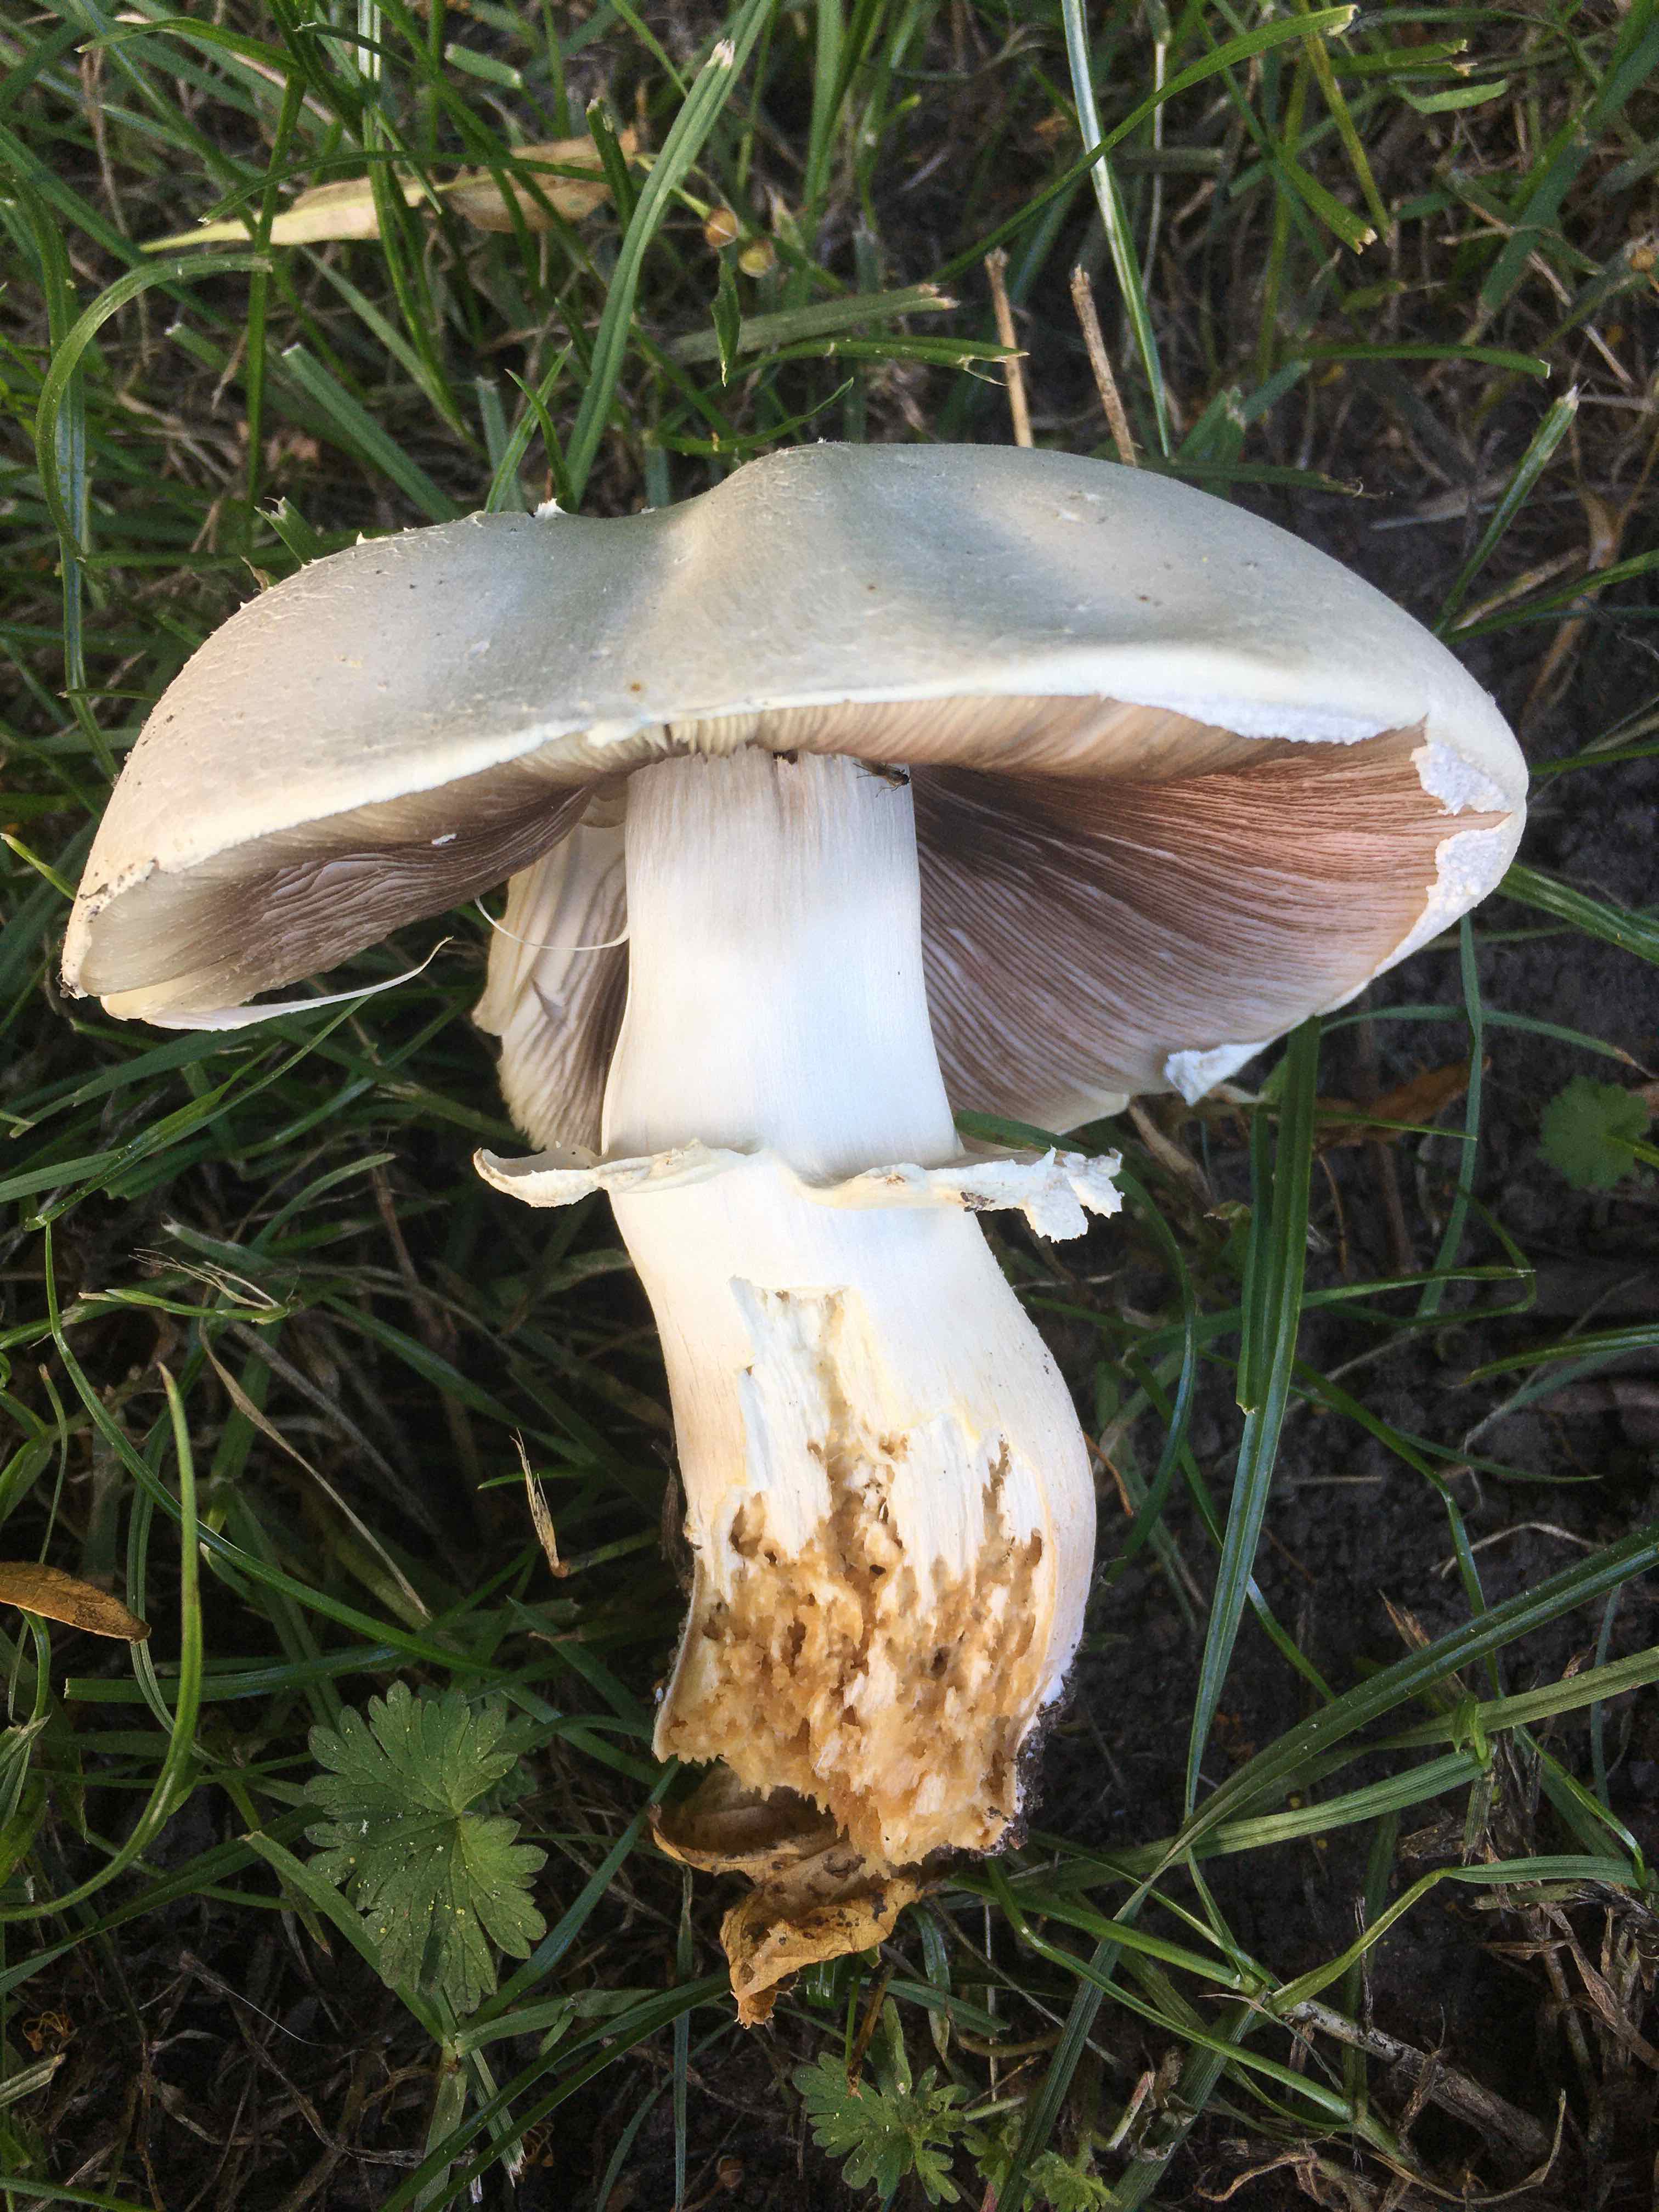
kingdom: Fungi
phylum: Basidiomycota
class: Agaricomycetes
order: Agaricales
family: Agaricaceae
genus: Agaricus
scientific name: Agaricus
